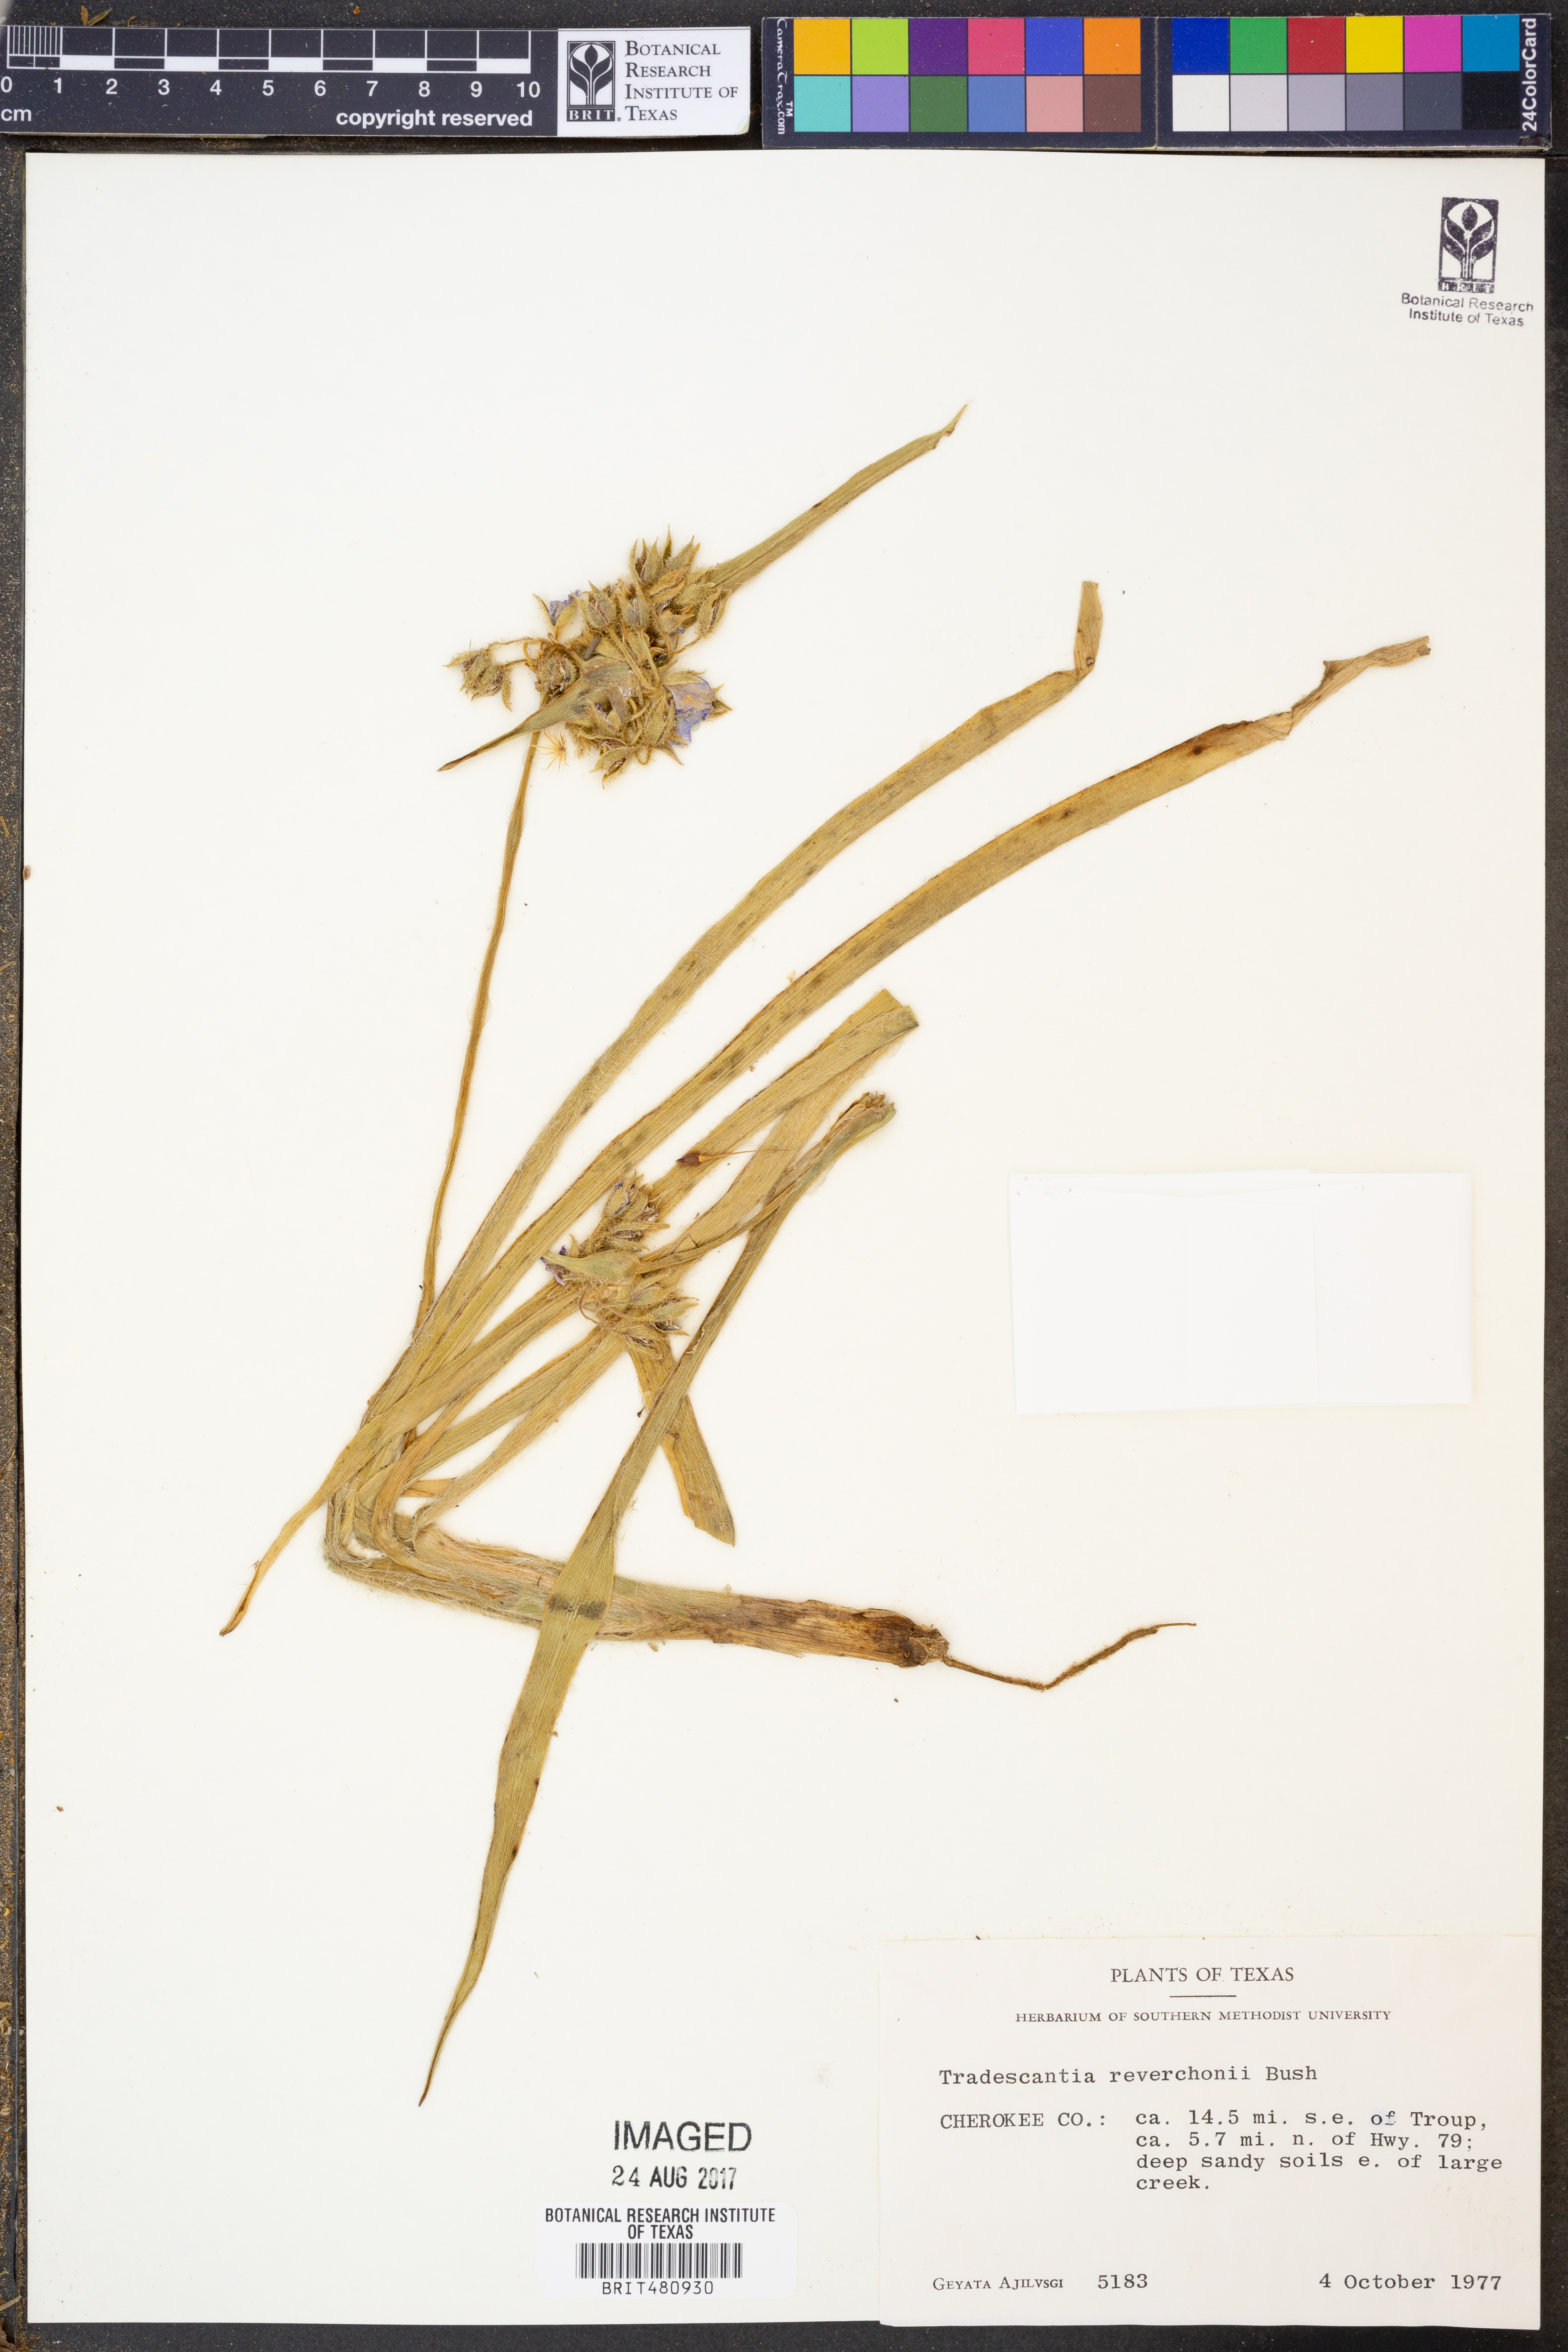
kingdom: Plantae
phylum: Tracheophyta
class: Liliopsida
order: Commelinales
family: Commelinaceae
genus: Tradescantia
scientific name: Tradescantia reverchonii
